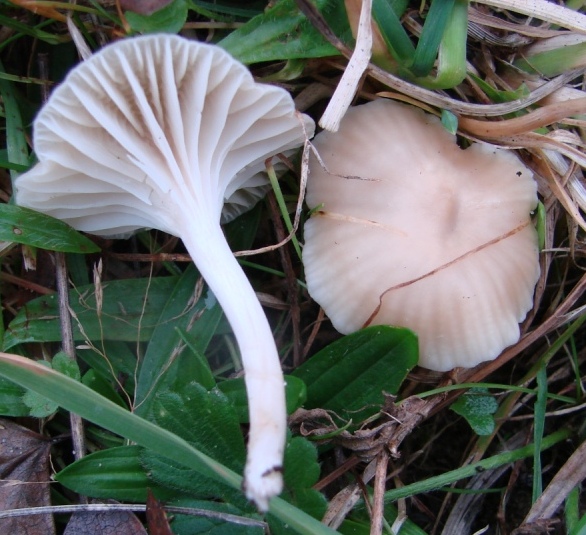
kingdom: Fungi
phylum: Basidiomycota
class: Agaricomycetes
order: Agaricales
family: Hygrophoraceae
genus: Cuphophyllus
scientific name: Cuphophyllus virgineus
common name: snehvid vokshat
